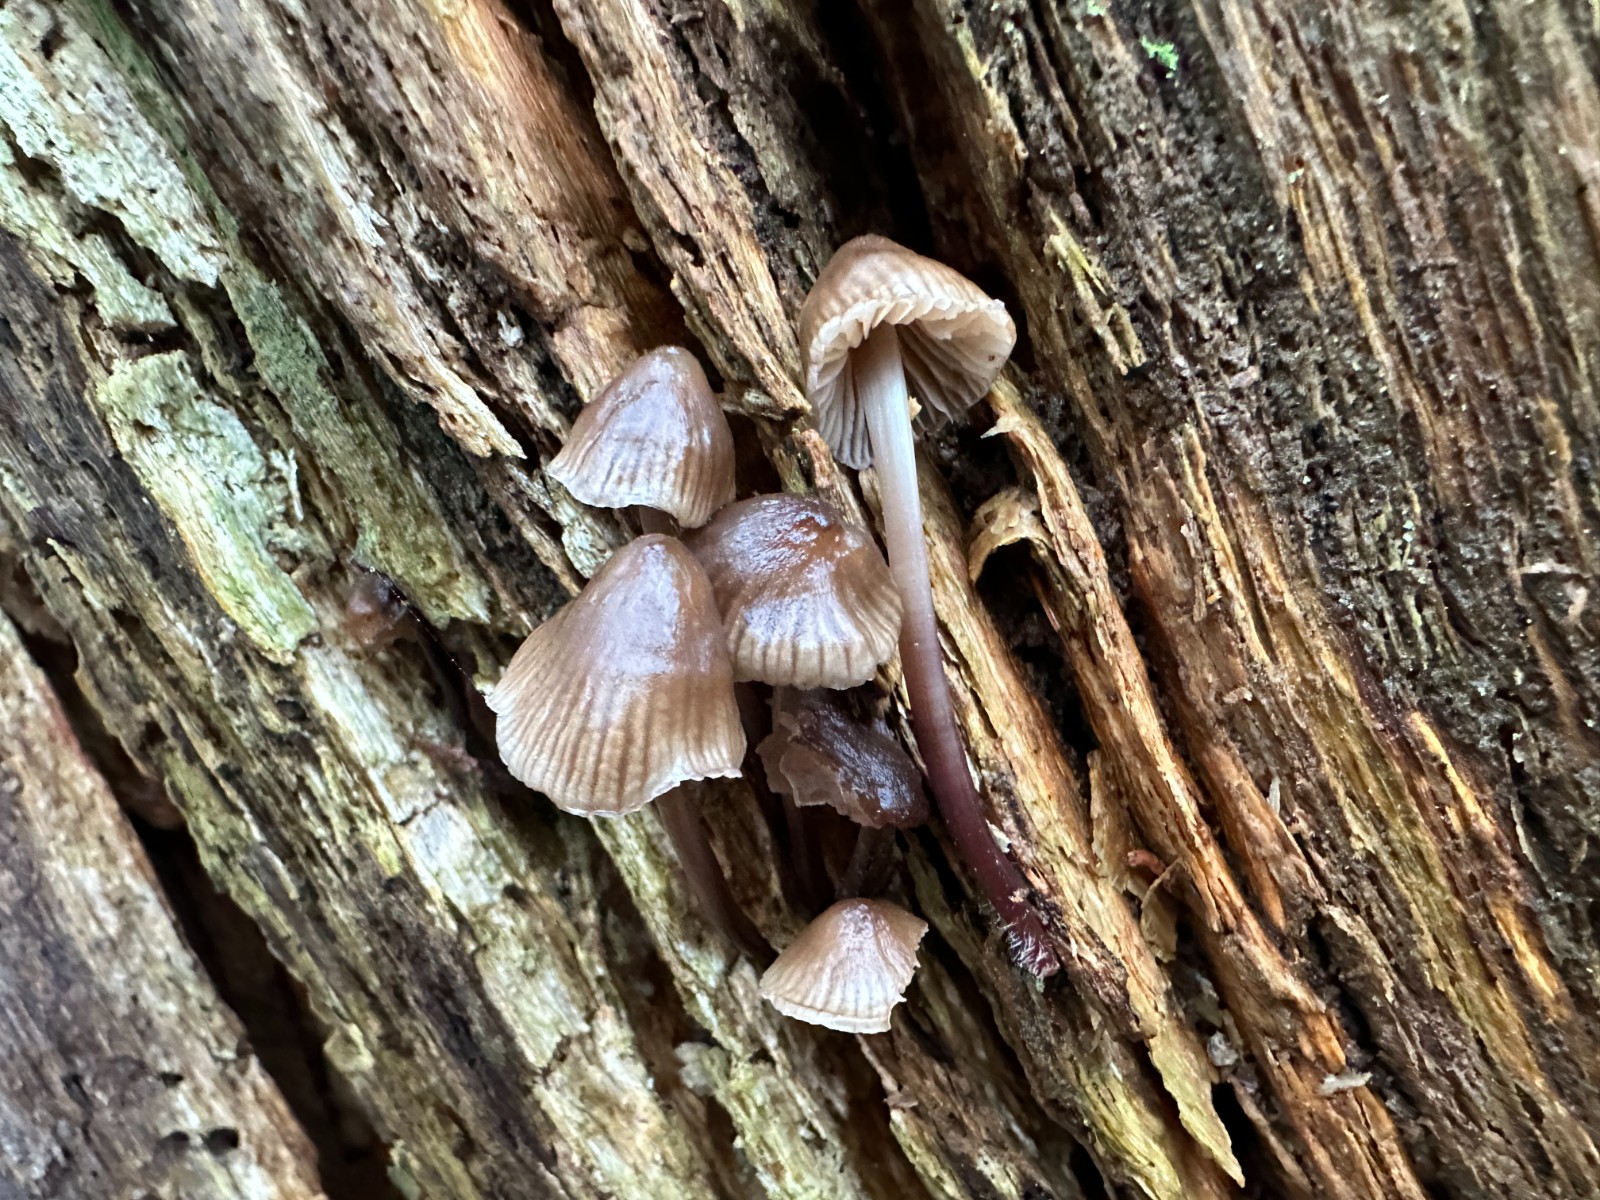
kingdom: Fungi
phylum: Basidiomycota
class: Agaricomycetes
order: Agaricales
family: Mycenaceae
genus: Mycena
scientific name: Mycena maculata
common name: rødplettet huesvamp
